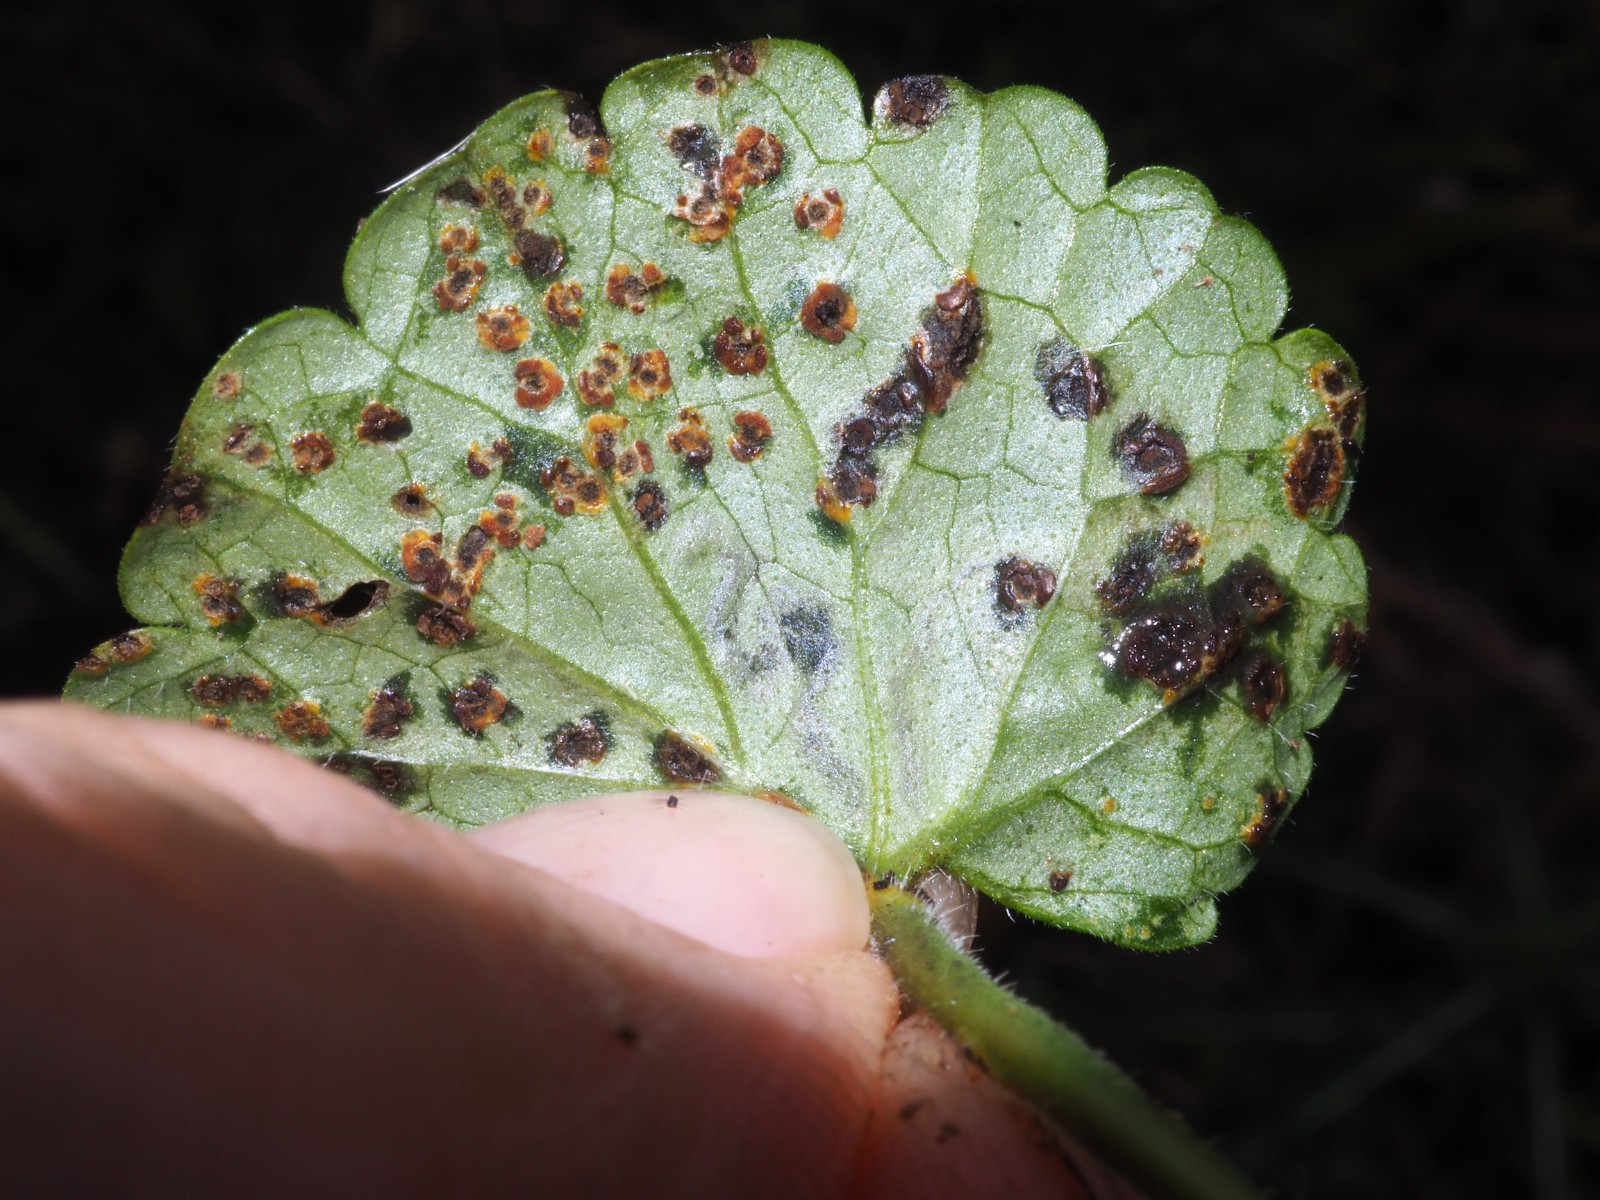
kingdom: Fungi
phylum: Basidiomycota
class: Pucciniomycetes
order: Pucciniales
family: Pucciniaceae
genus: Puccinia
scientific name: Puccinia glechomatis
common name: Ground ivy rust
